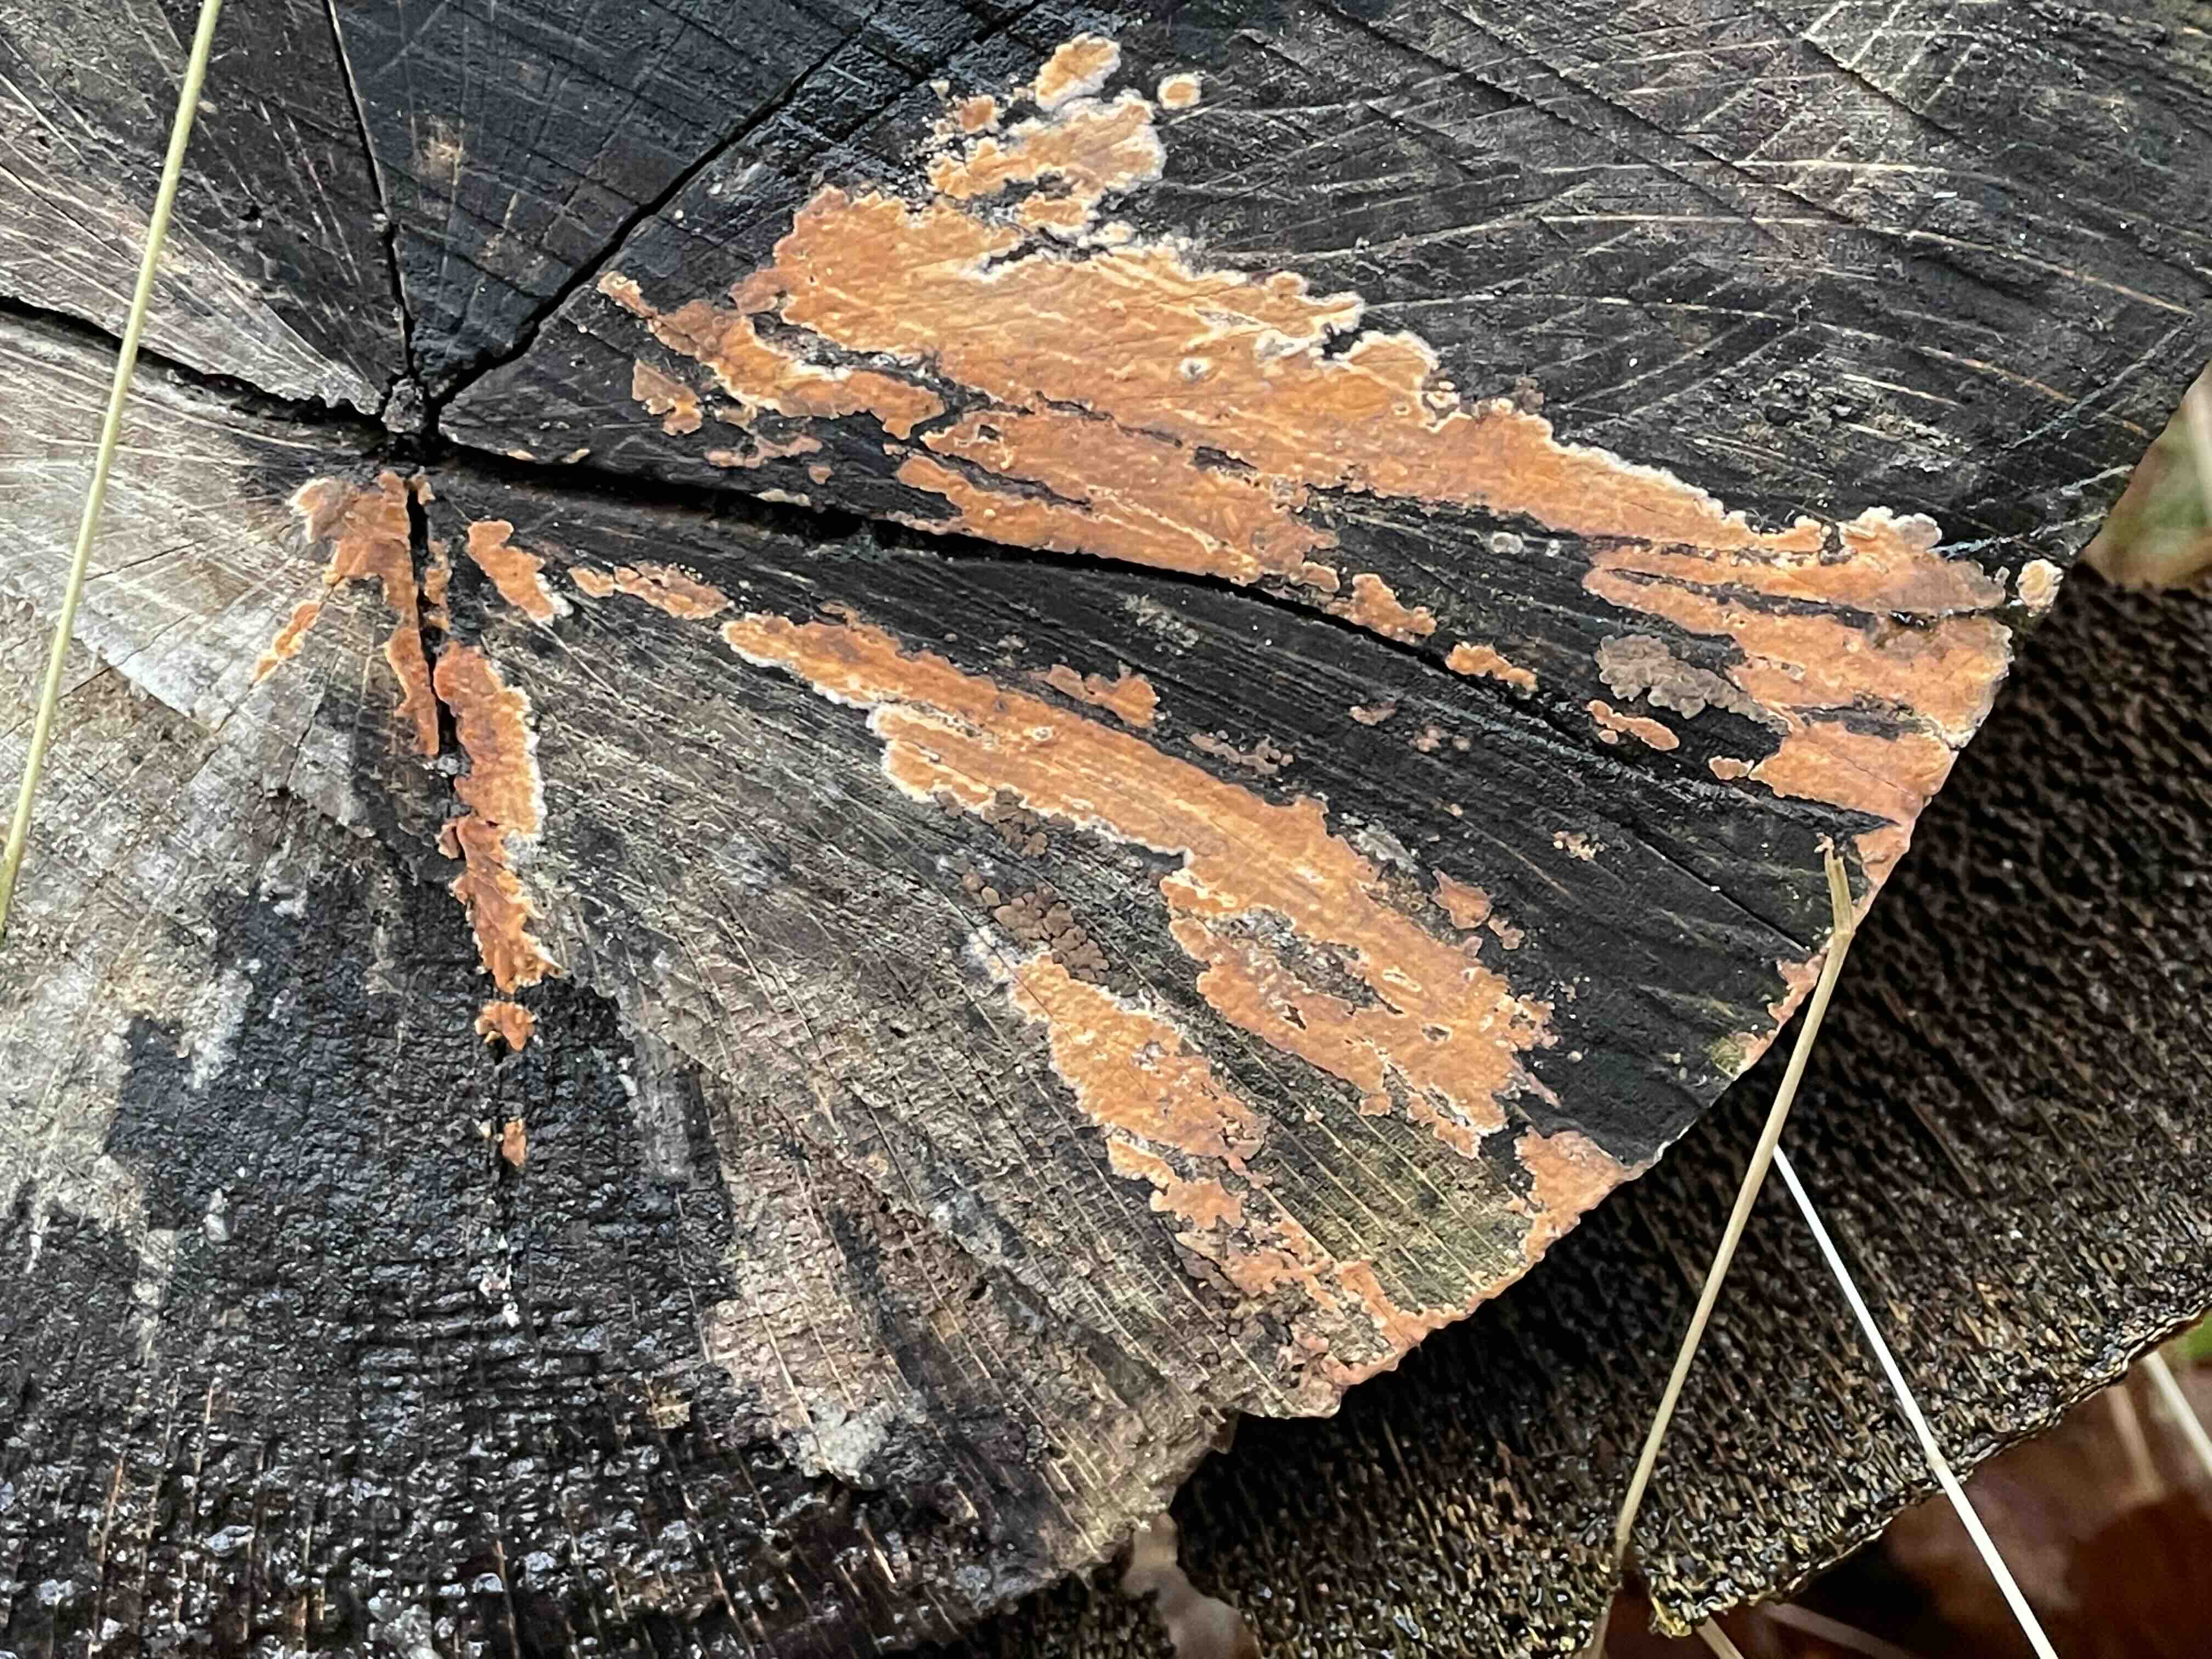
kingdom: Fungi
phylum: Basidiomycota
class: Agaricomycetes
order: Russulales
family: Peniophoraceae
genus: Peniophora
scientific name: Peniophora incarnata
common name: laksefarvet voksskind
